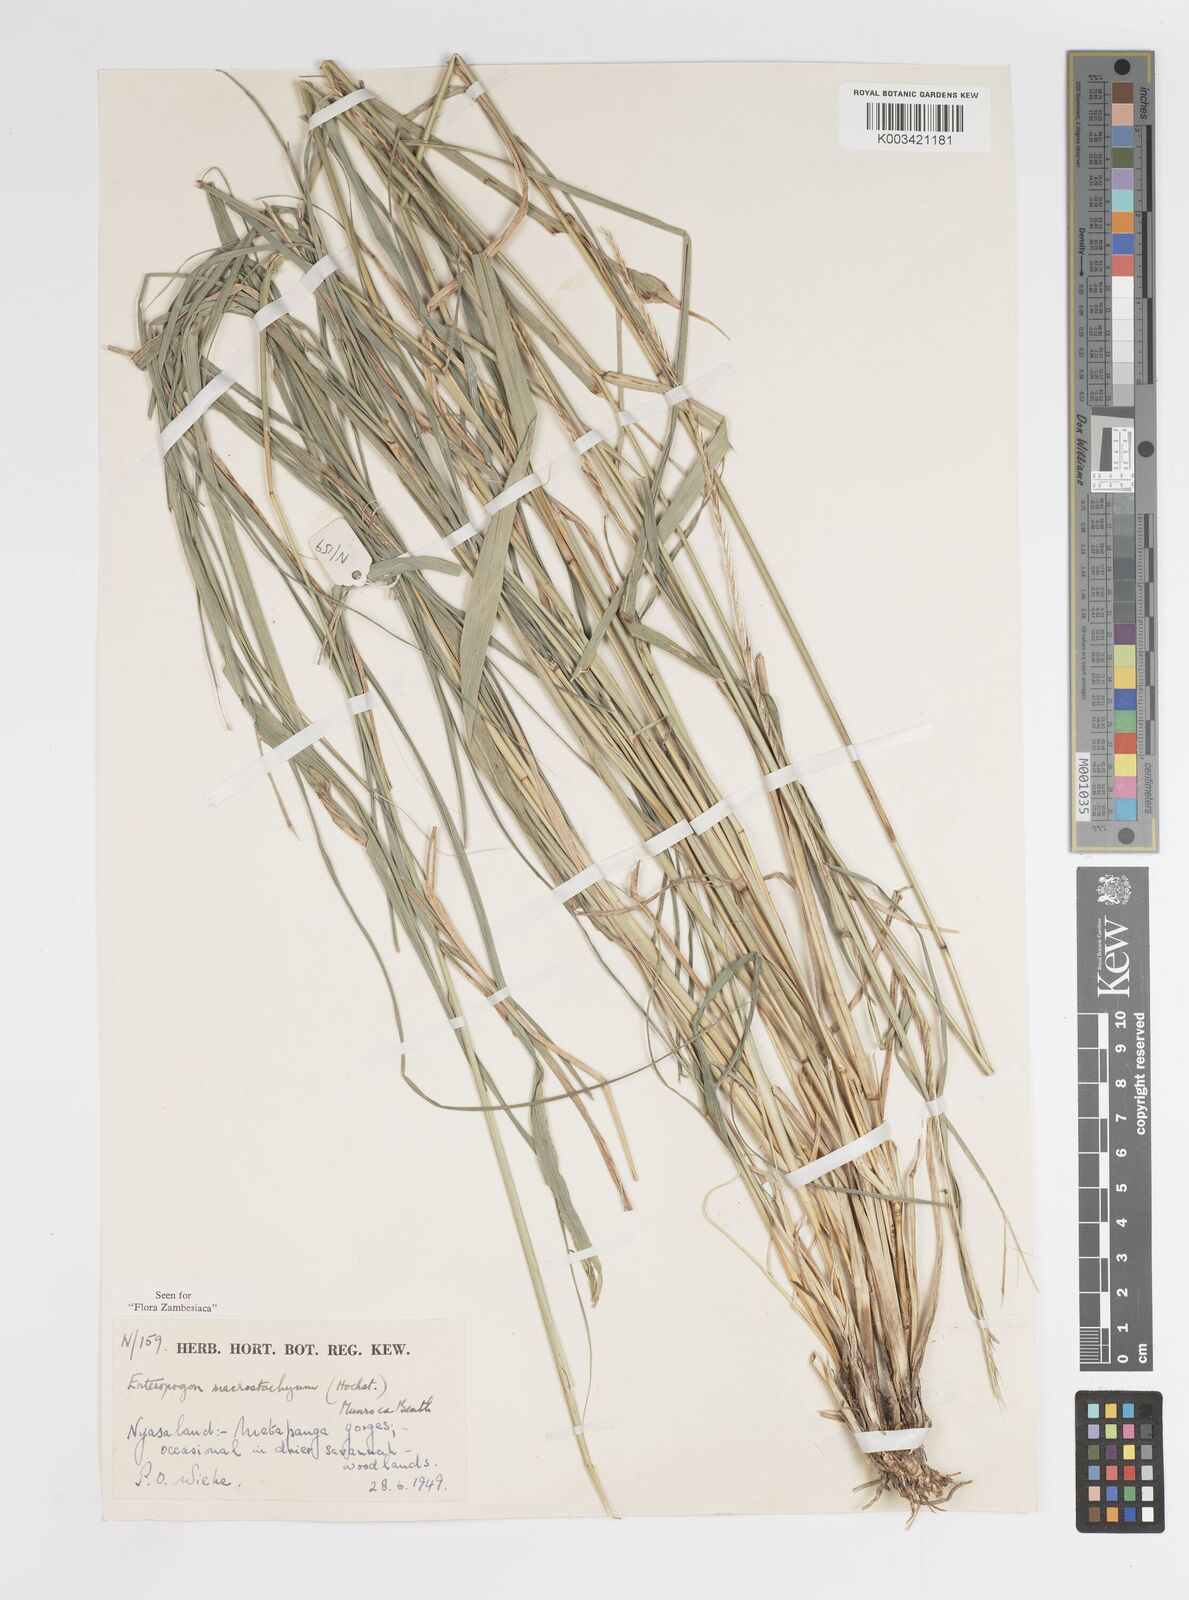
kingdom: Plantae
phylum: Tracheophyta
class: Liliopsida
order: Poales
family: Poaceae
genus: Enteropogon
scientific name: Enteropogon macrostachyus
